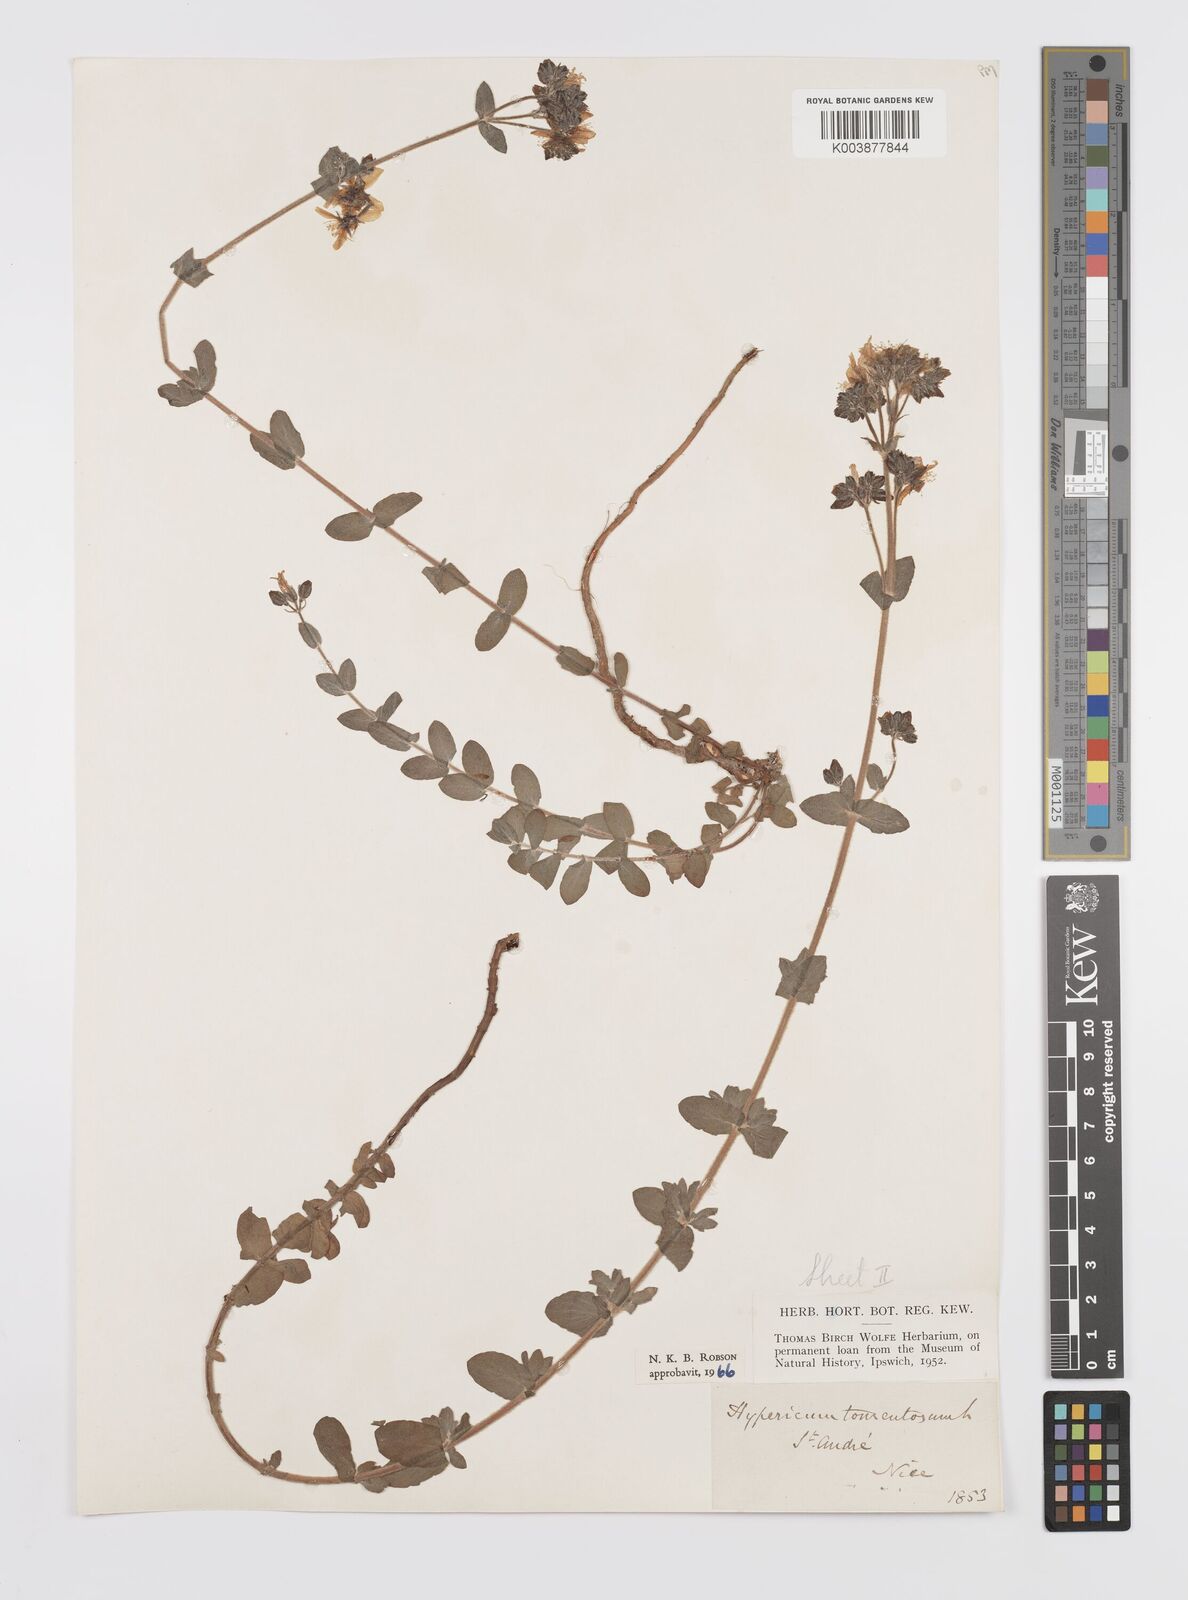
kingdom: Plantae
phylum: Tracheophyta
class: Magnoliopsida
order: Malpighiales
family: Hypericaceae
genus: Hypericum
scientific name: Hypericum tomentosum
